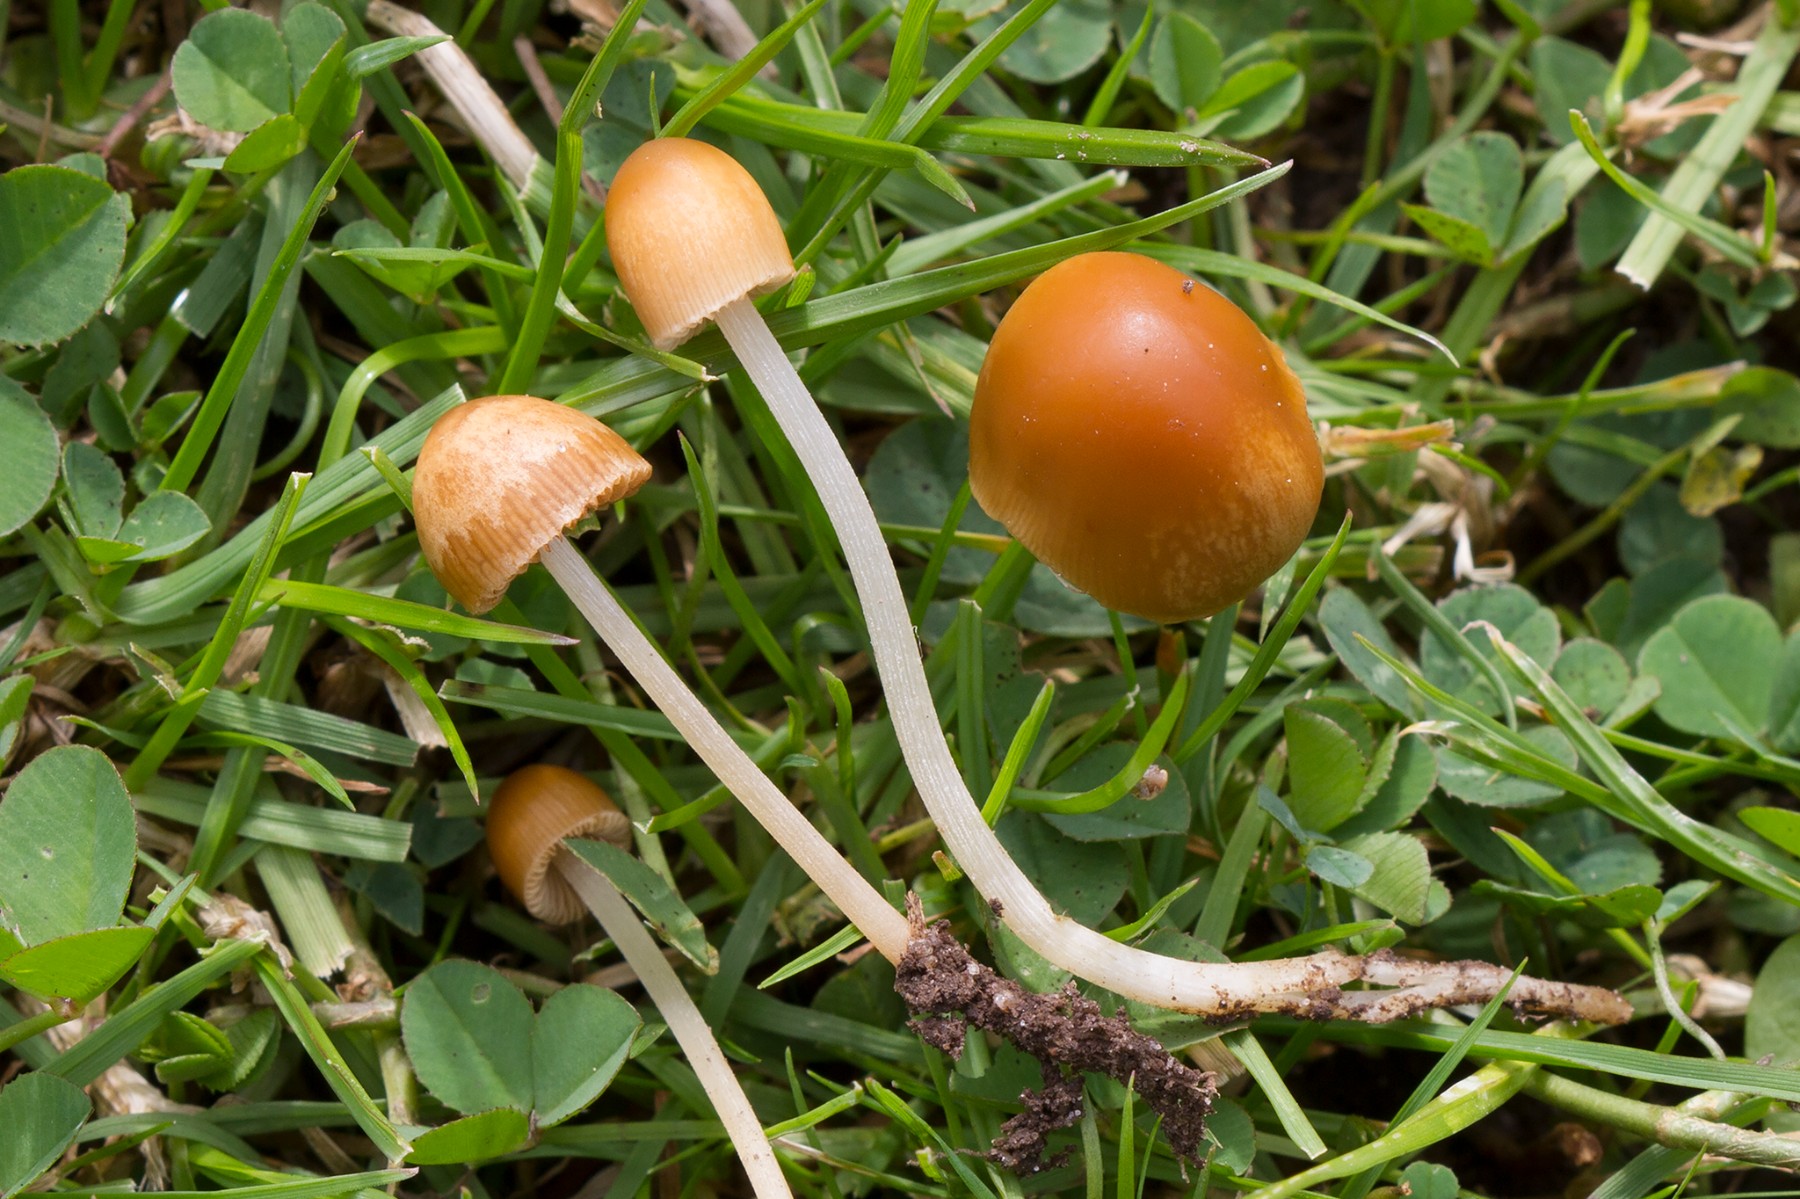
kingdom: Fungi
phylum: Basidiomycota
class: Agaricomycetes
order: Agaricales
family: Bolbitiaceae
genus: Conocybe
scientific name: Conocybe alboradicans
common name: rod-keglehat
